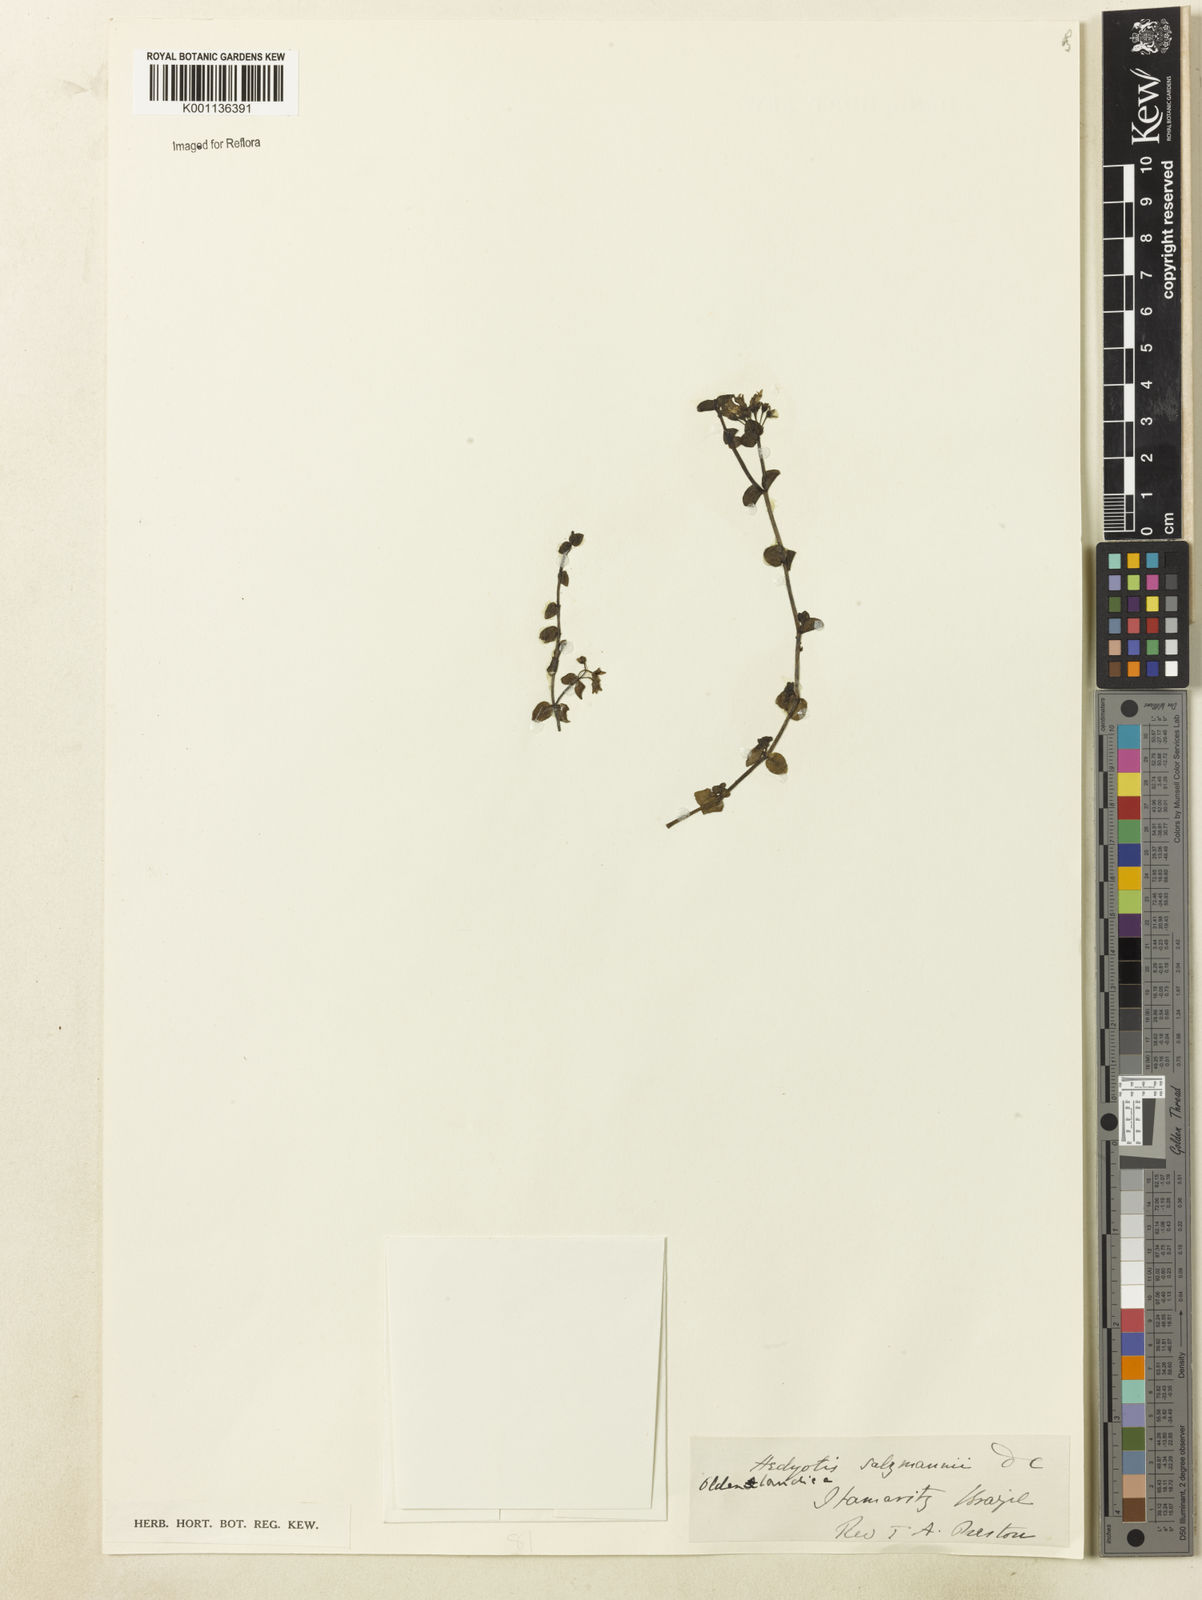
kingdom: Plantae
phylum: Tracheophyta
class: Magnoliopsida
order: Gentianales
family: Rubiaceae
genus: Oldenlandia
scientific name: Oldenlandia salzmannii
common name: Salzmann's mille graines
